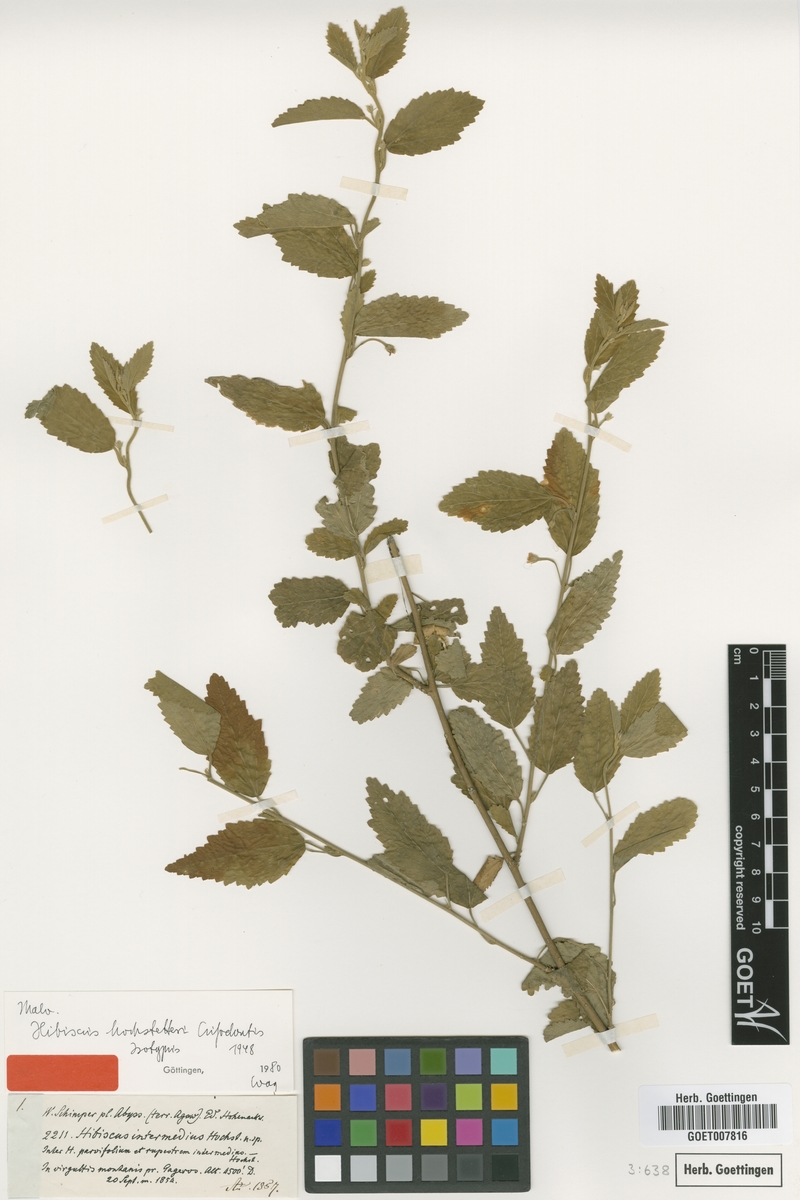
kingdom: Plantae
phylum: Tracheophyta
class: Magnoliopsida
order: Malvales
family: Malvaceae
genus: Hibiscus
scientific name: Hibiscus hochstetteri
